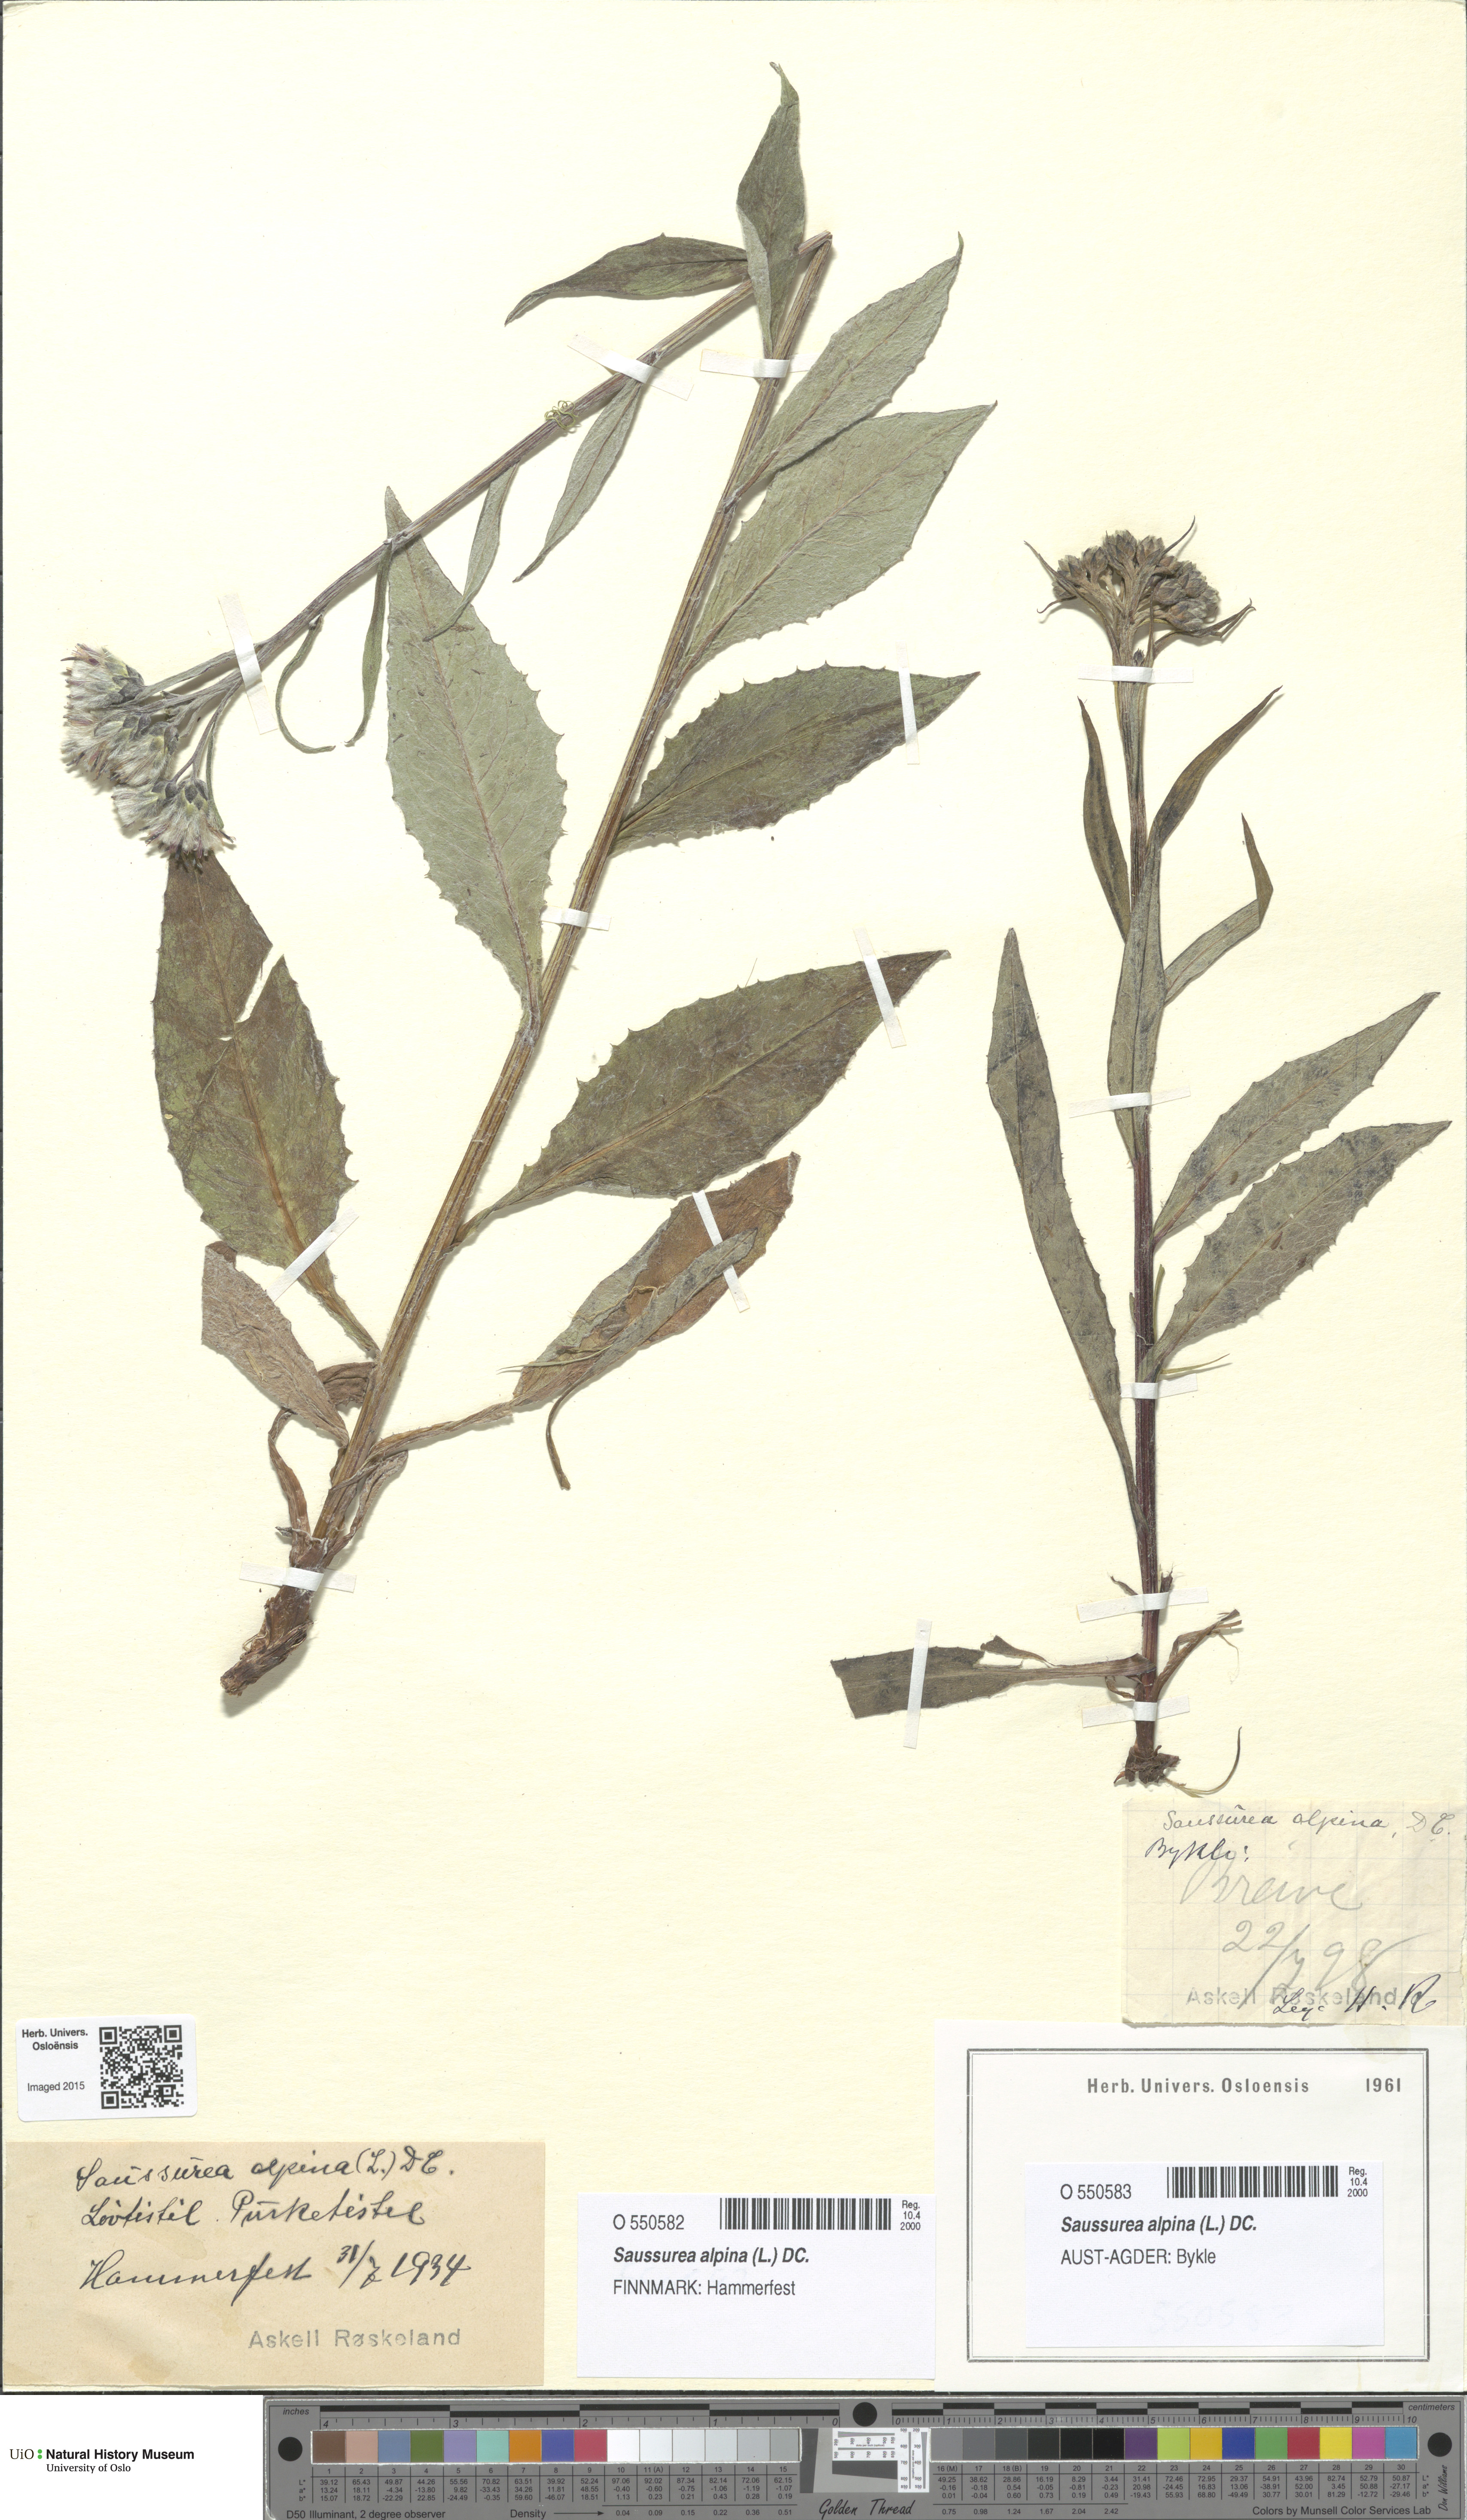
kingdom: Plantae
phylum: Tracheophyta
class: Magnoliopsida
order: Asterales
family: Asteraceae
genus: Saussurea
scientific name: Saussurea alpina
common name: Alpine saw-wort
